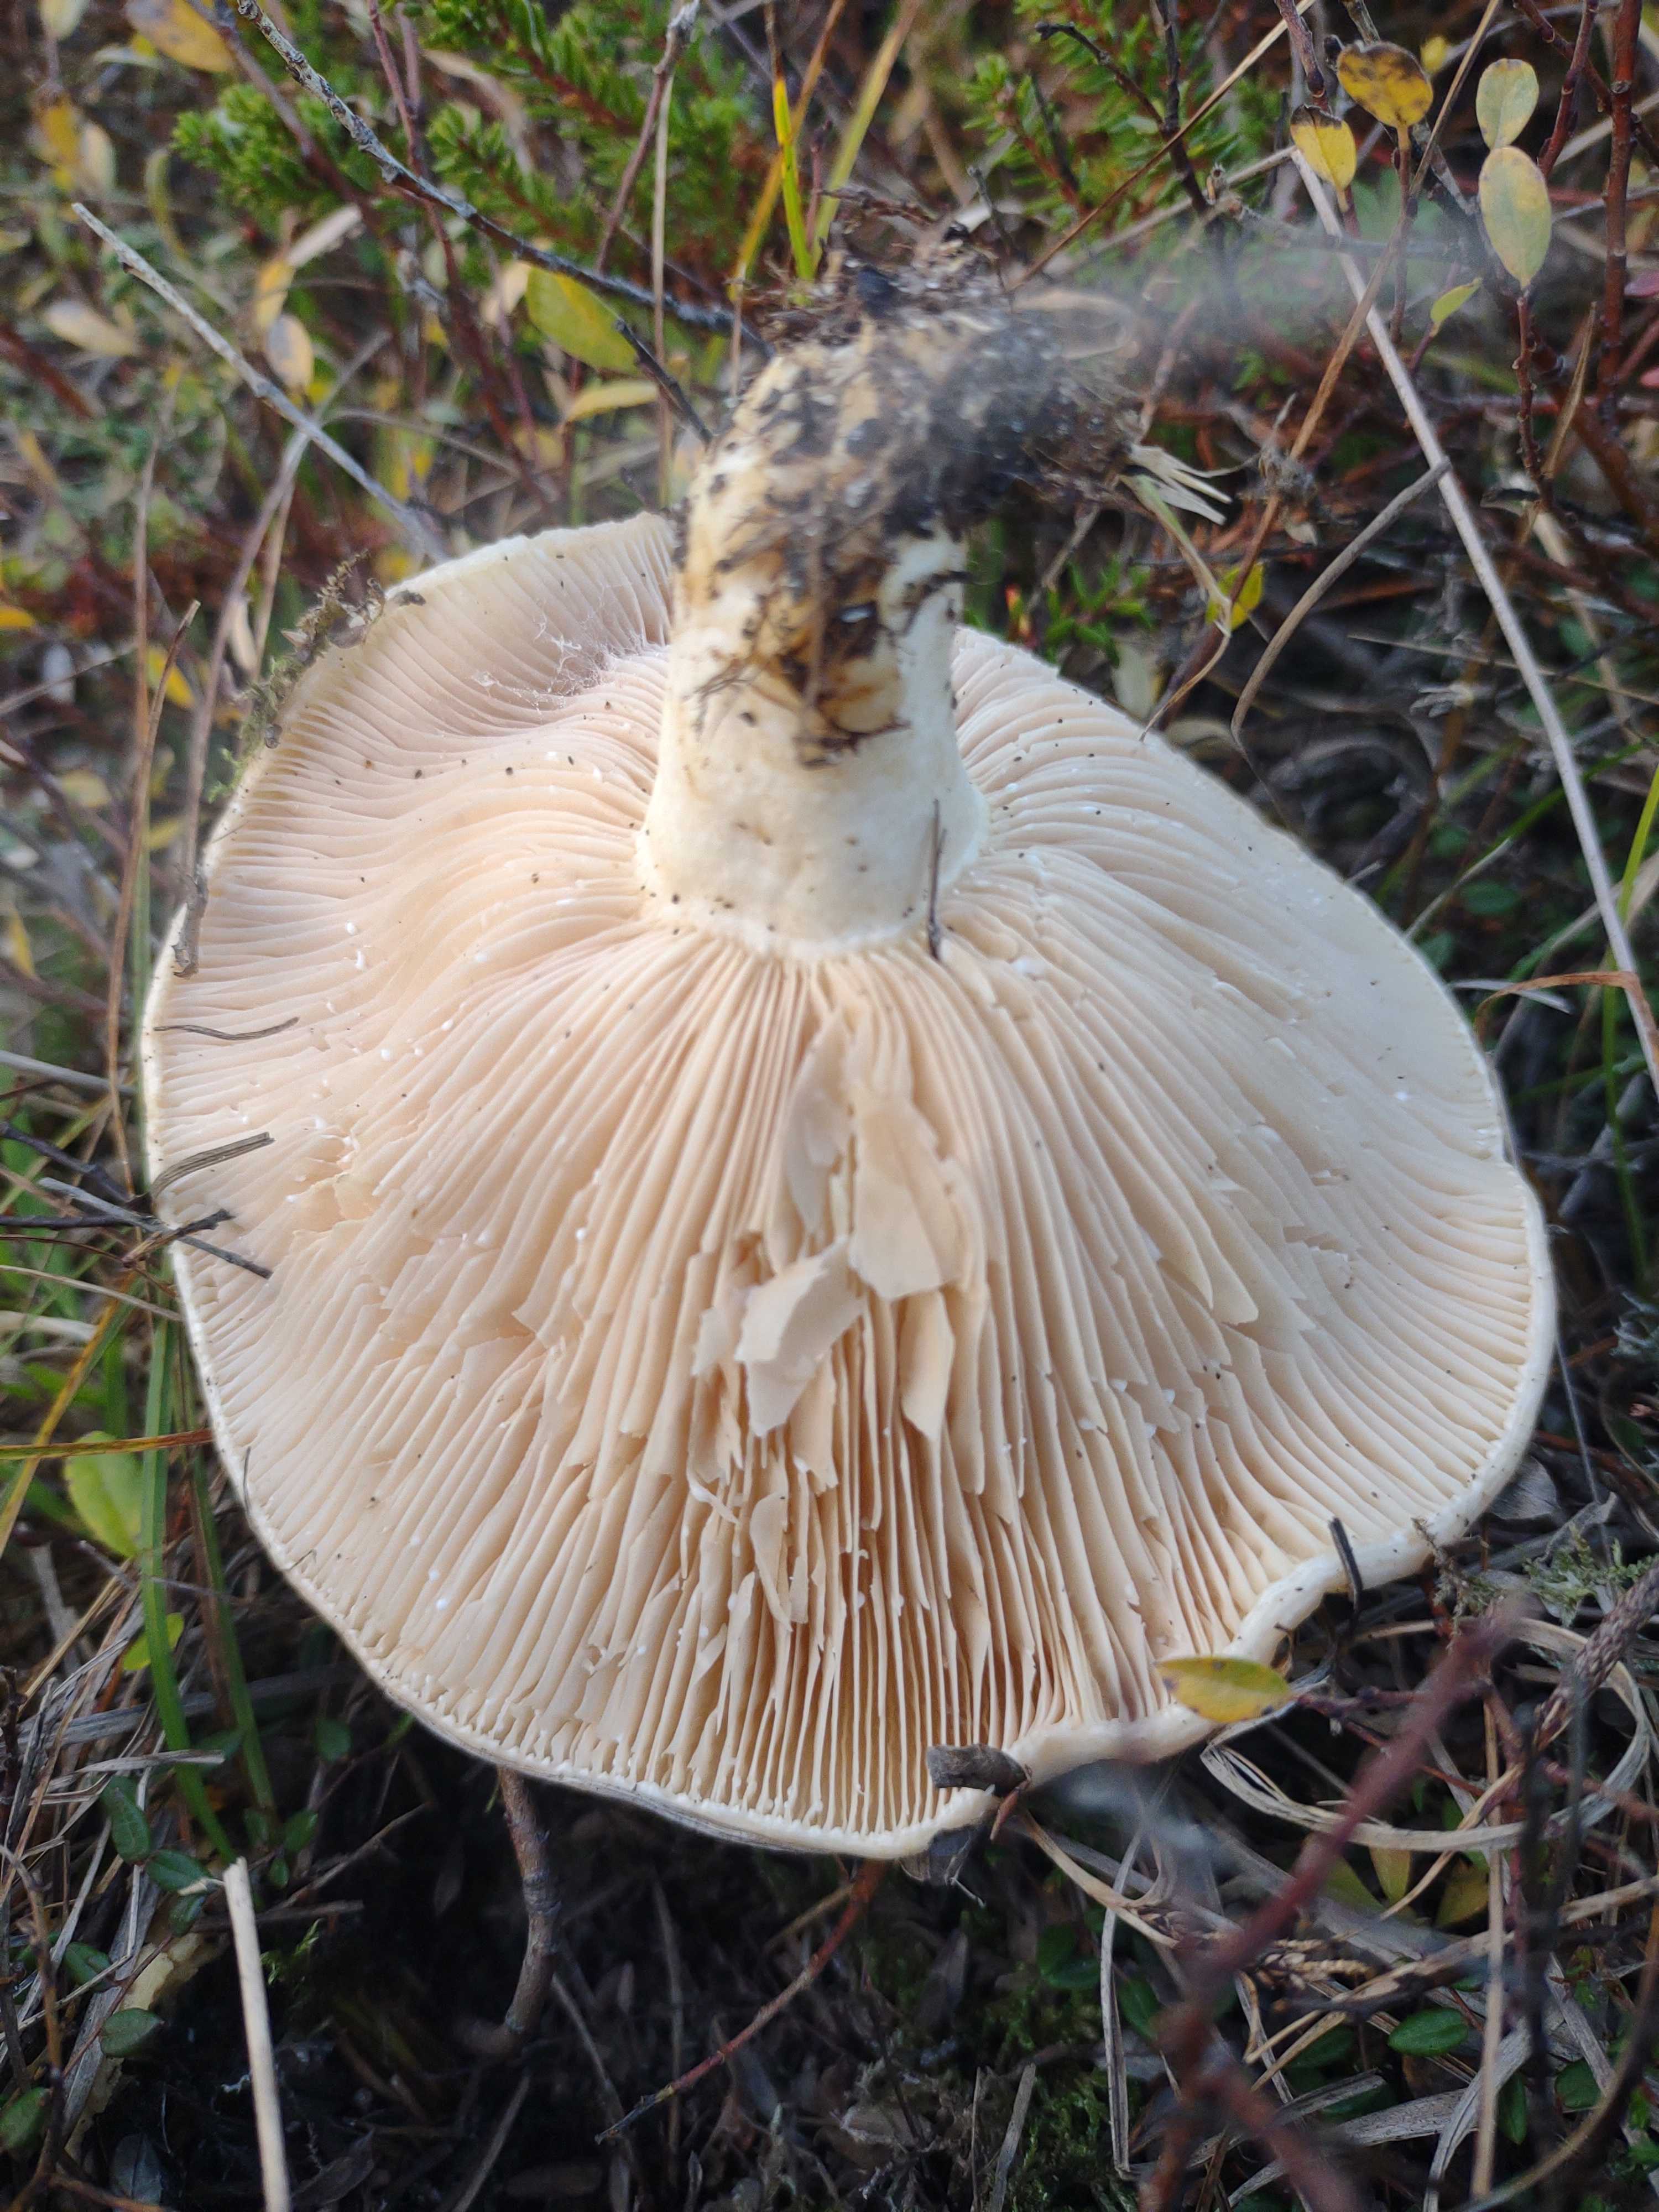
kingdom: Fungi
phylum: Basidiomycota
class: Agaricomycetes
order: Russulales
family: Russulaceae
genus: Lactarius
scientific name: Lactarius controversus
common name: rosabladet mælkehat
